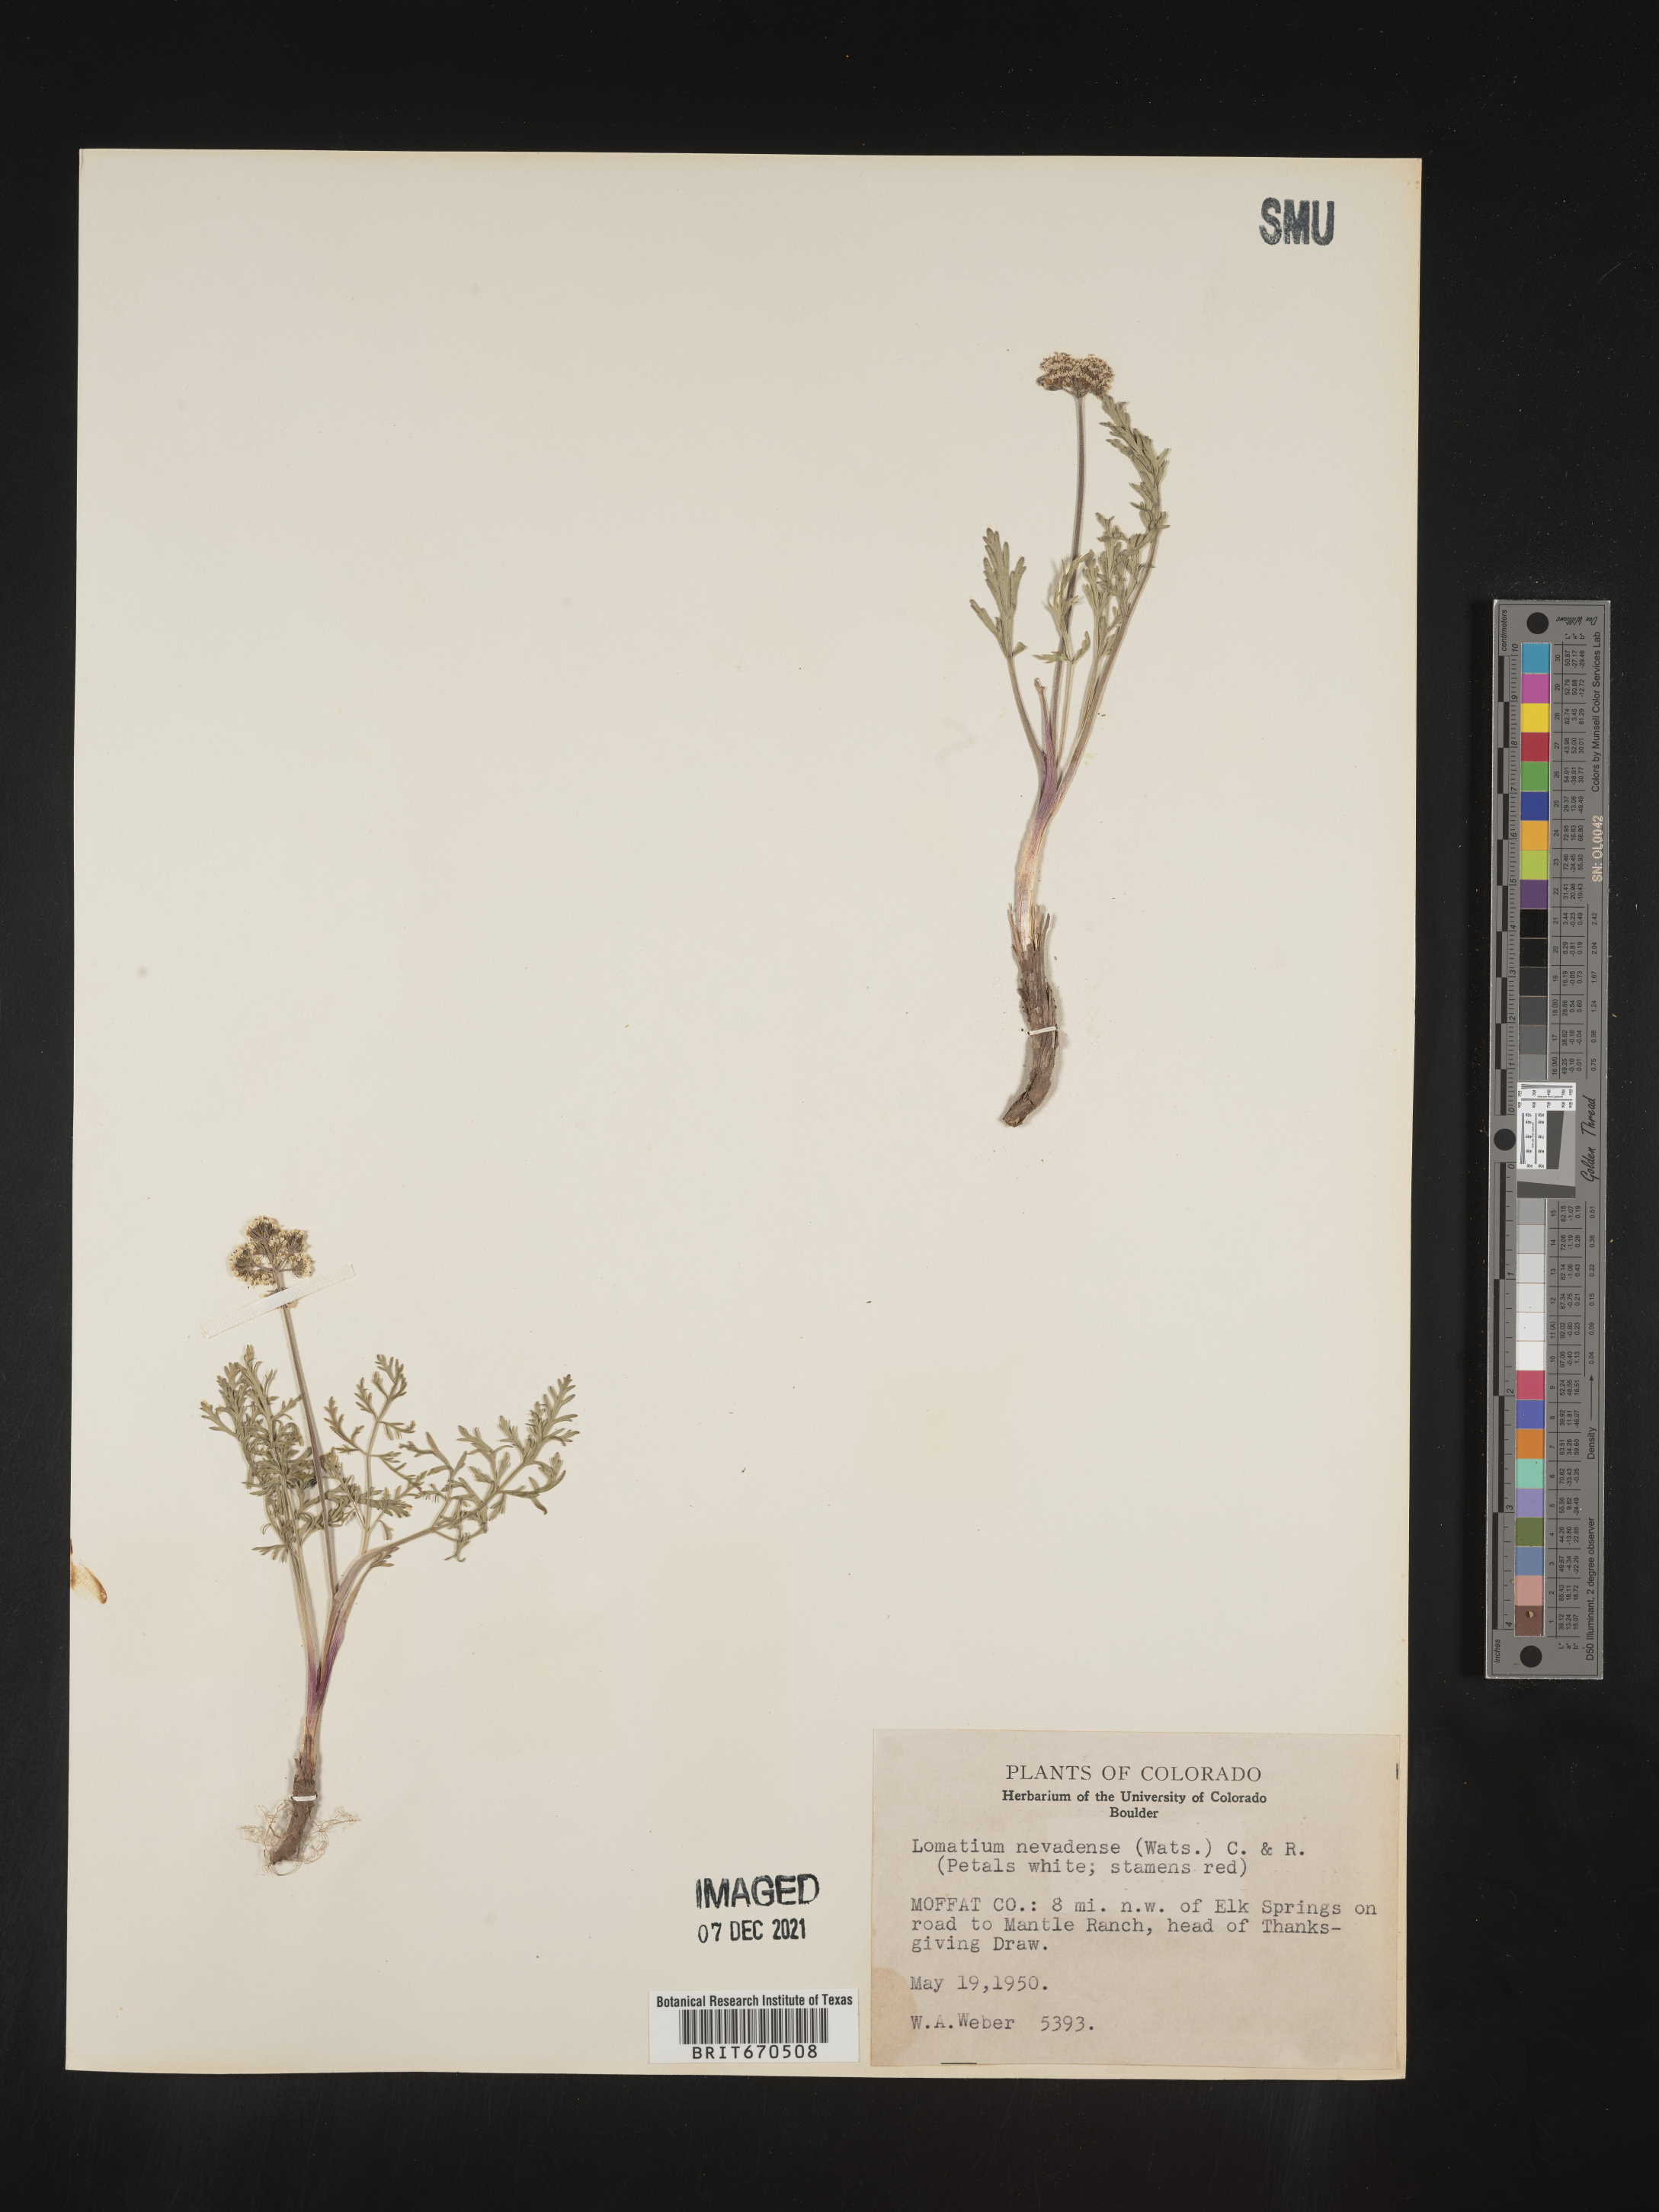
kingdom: Plantae
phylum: Tracheophyta
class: Magnoliopsida
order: Apiales
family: Apiaceae
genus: Lomatium
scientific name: Lomatium nevadense
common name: Nevada lomatium
